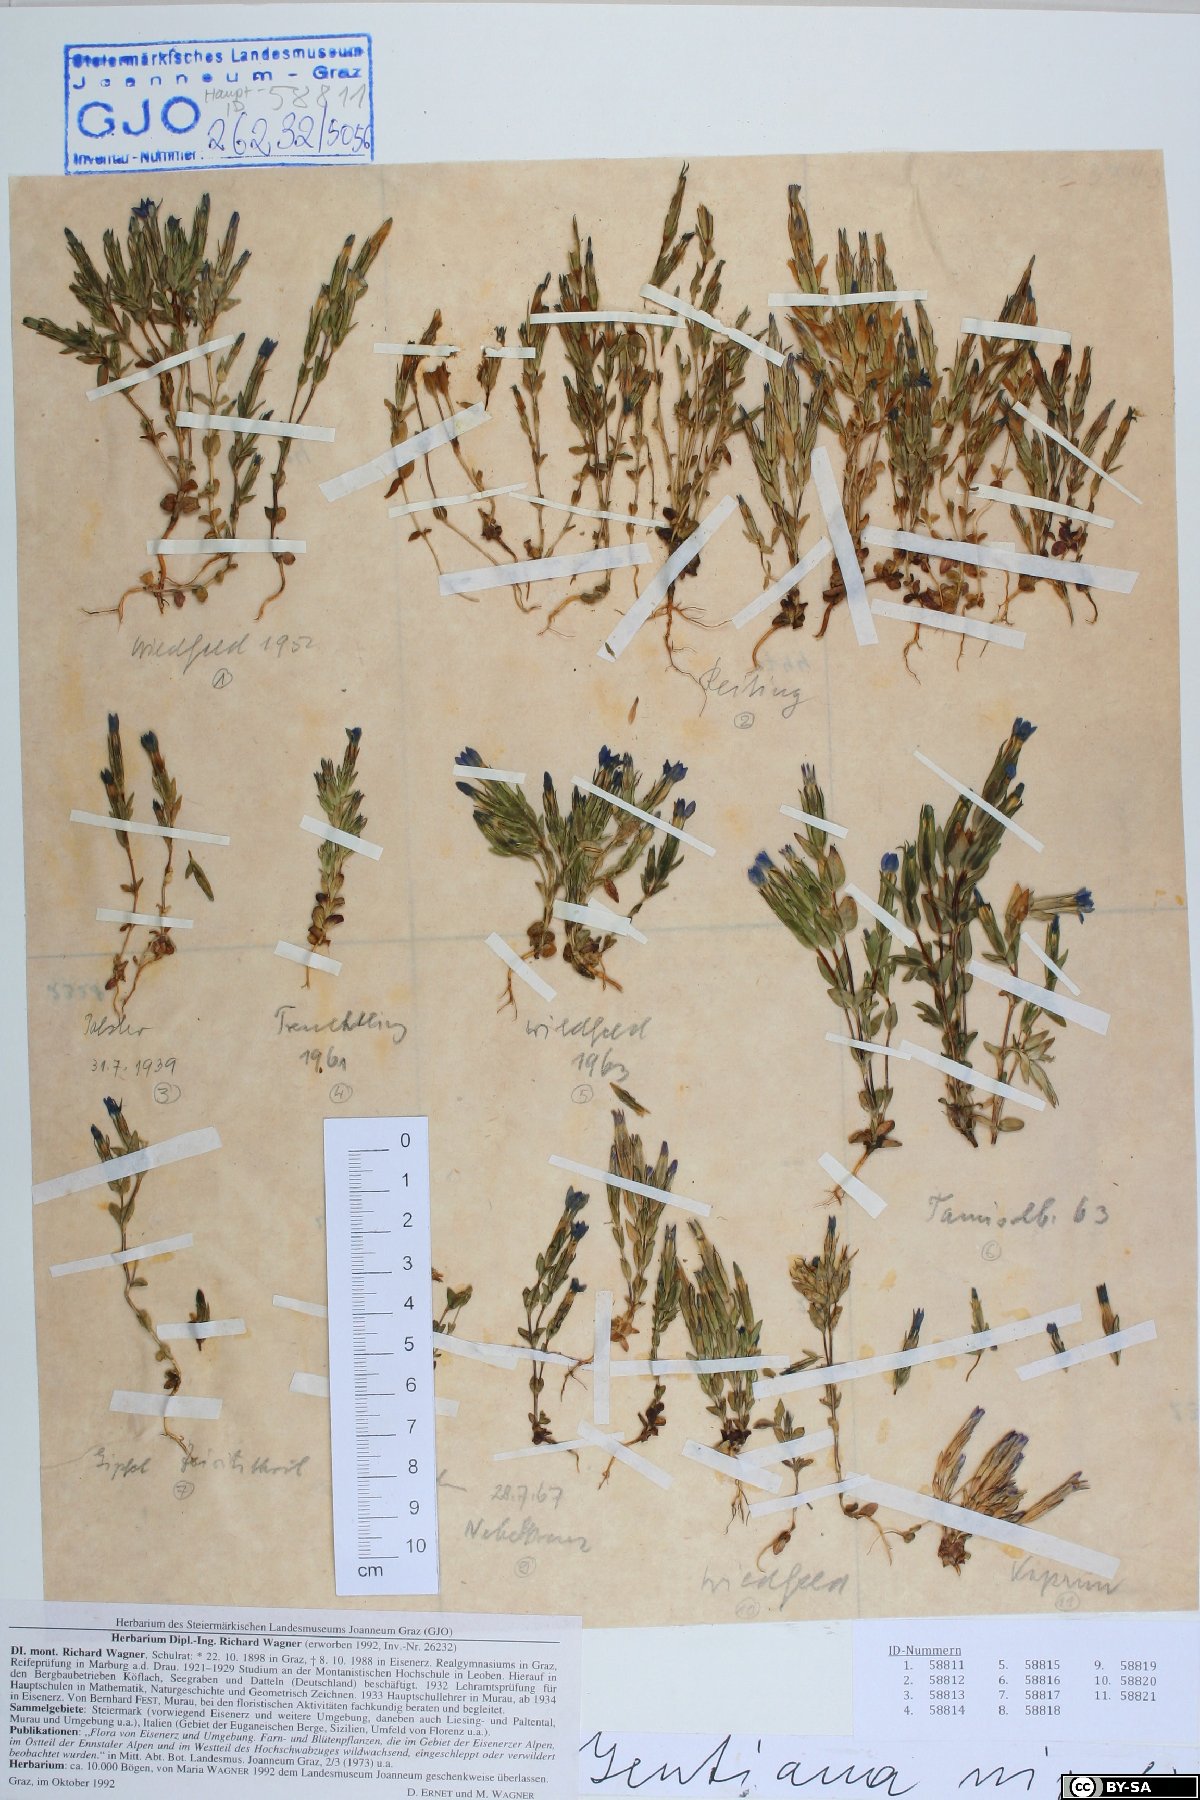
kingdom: Plantae
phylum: Tracheophyta
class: Magnoliopsida
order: Gentianales
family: Gentianaceae
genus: Gentiana
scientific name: Gentiana nivalis
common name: Alpine gentian
